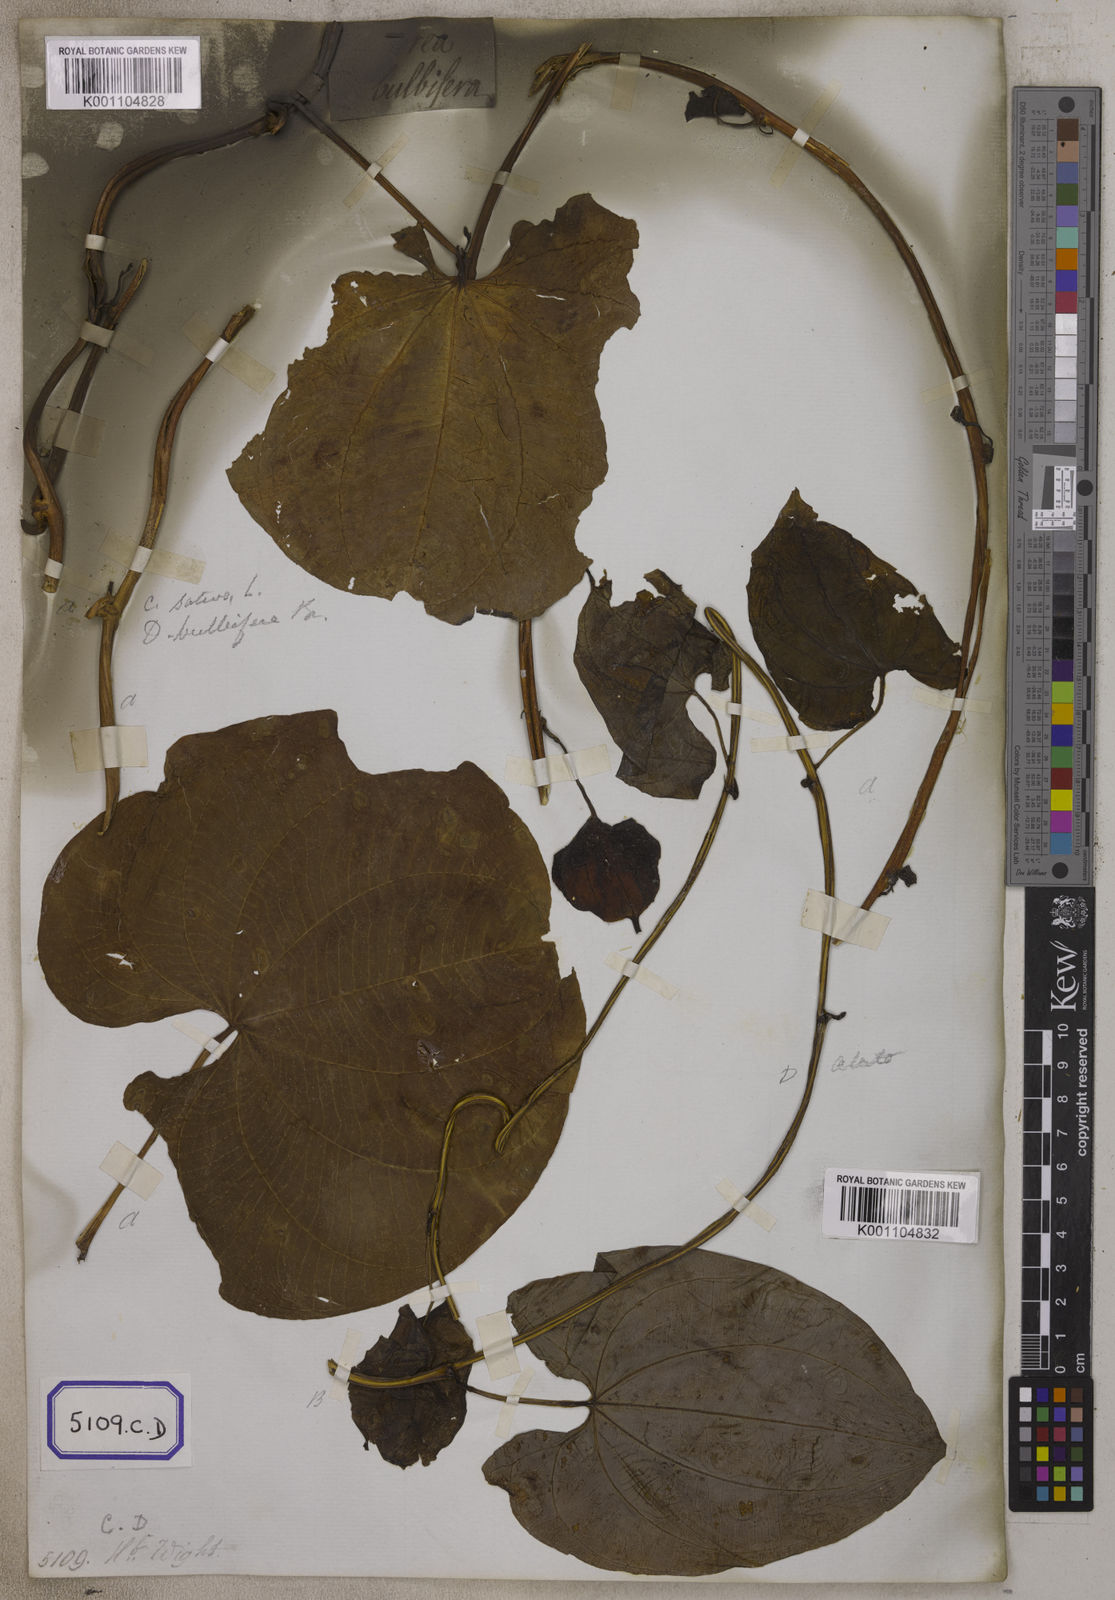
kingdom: Plantae
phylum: Tracheophyta
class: Liliopsida
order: Dioscoreales
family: Dioscoreaceae
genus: Dioscorea
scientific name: Dioscorea
